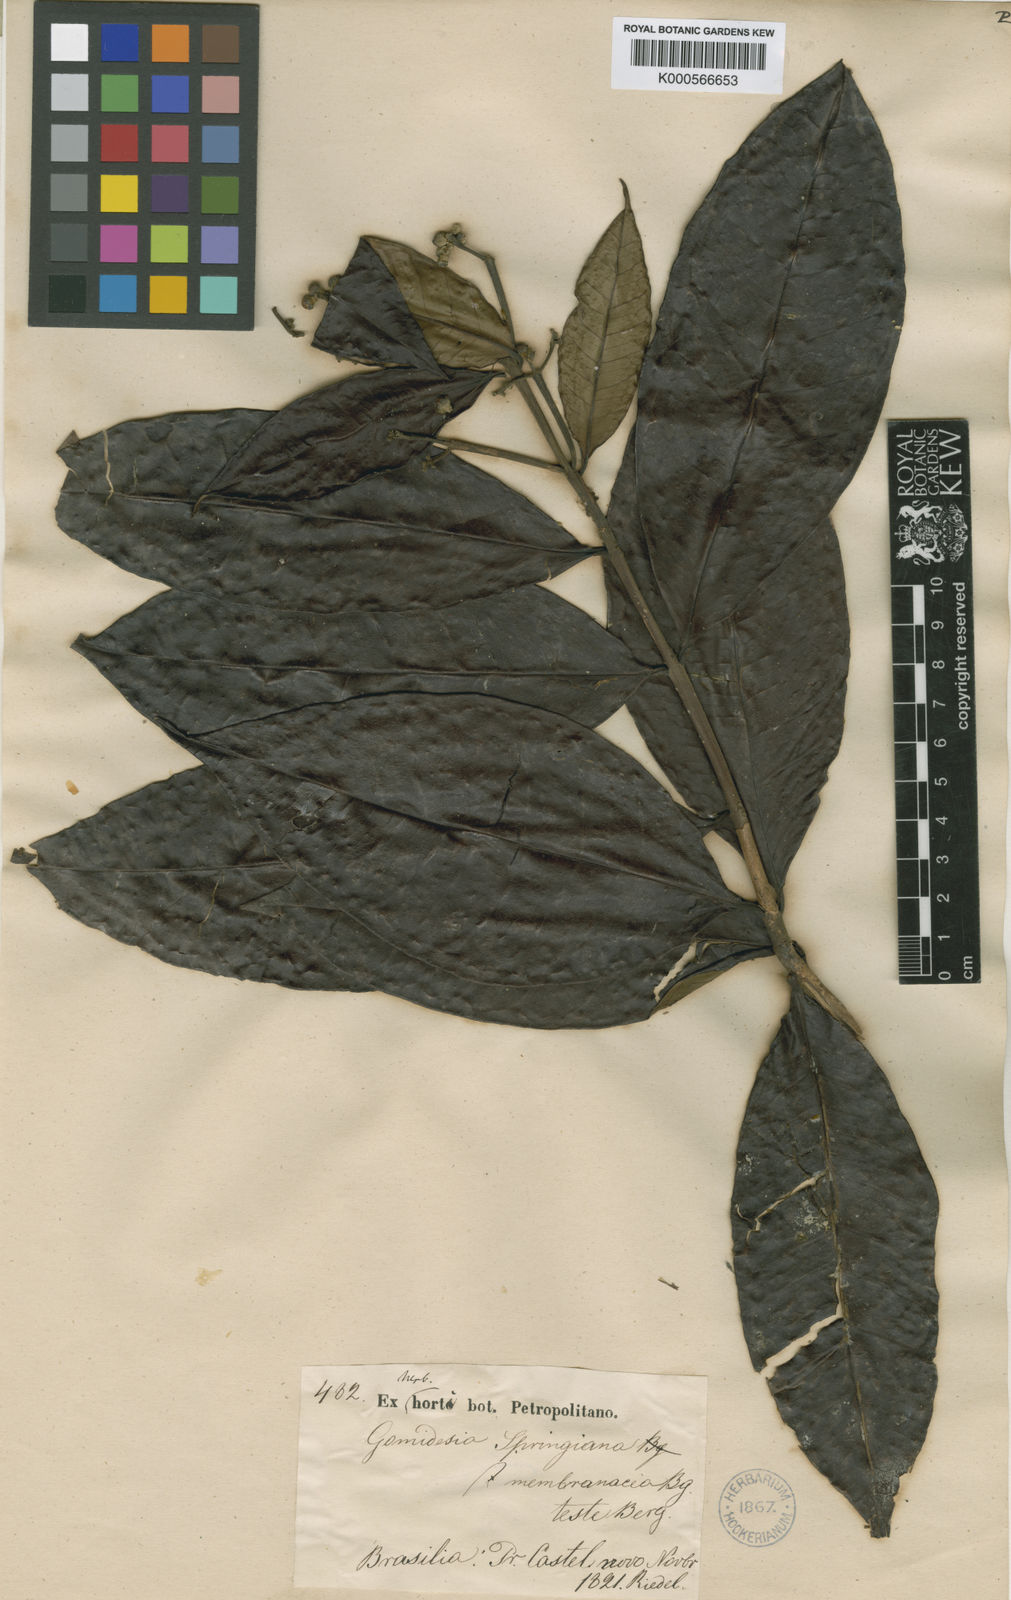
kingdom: Plantae
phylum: Tracheophyta
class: Magnoliopsida
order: Myrtales
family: Myrtaceae
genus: Myrcia
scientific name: Myrcia springiana
